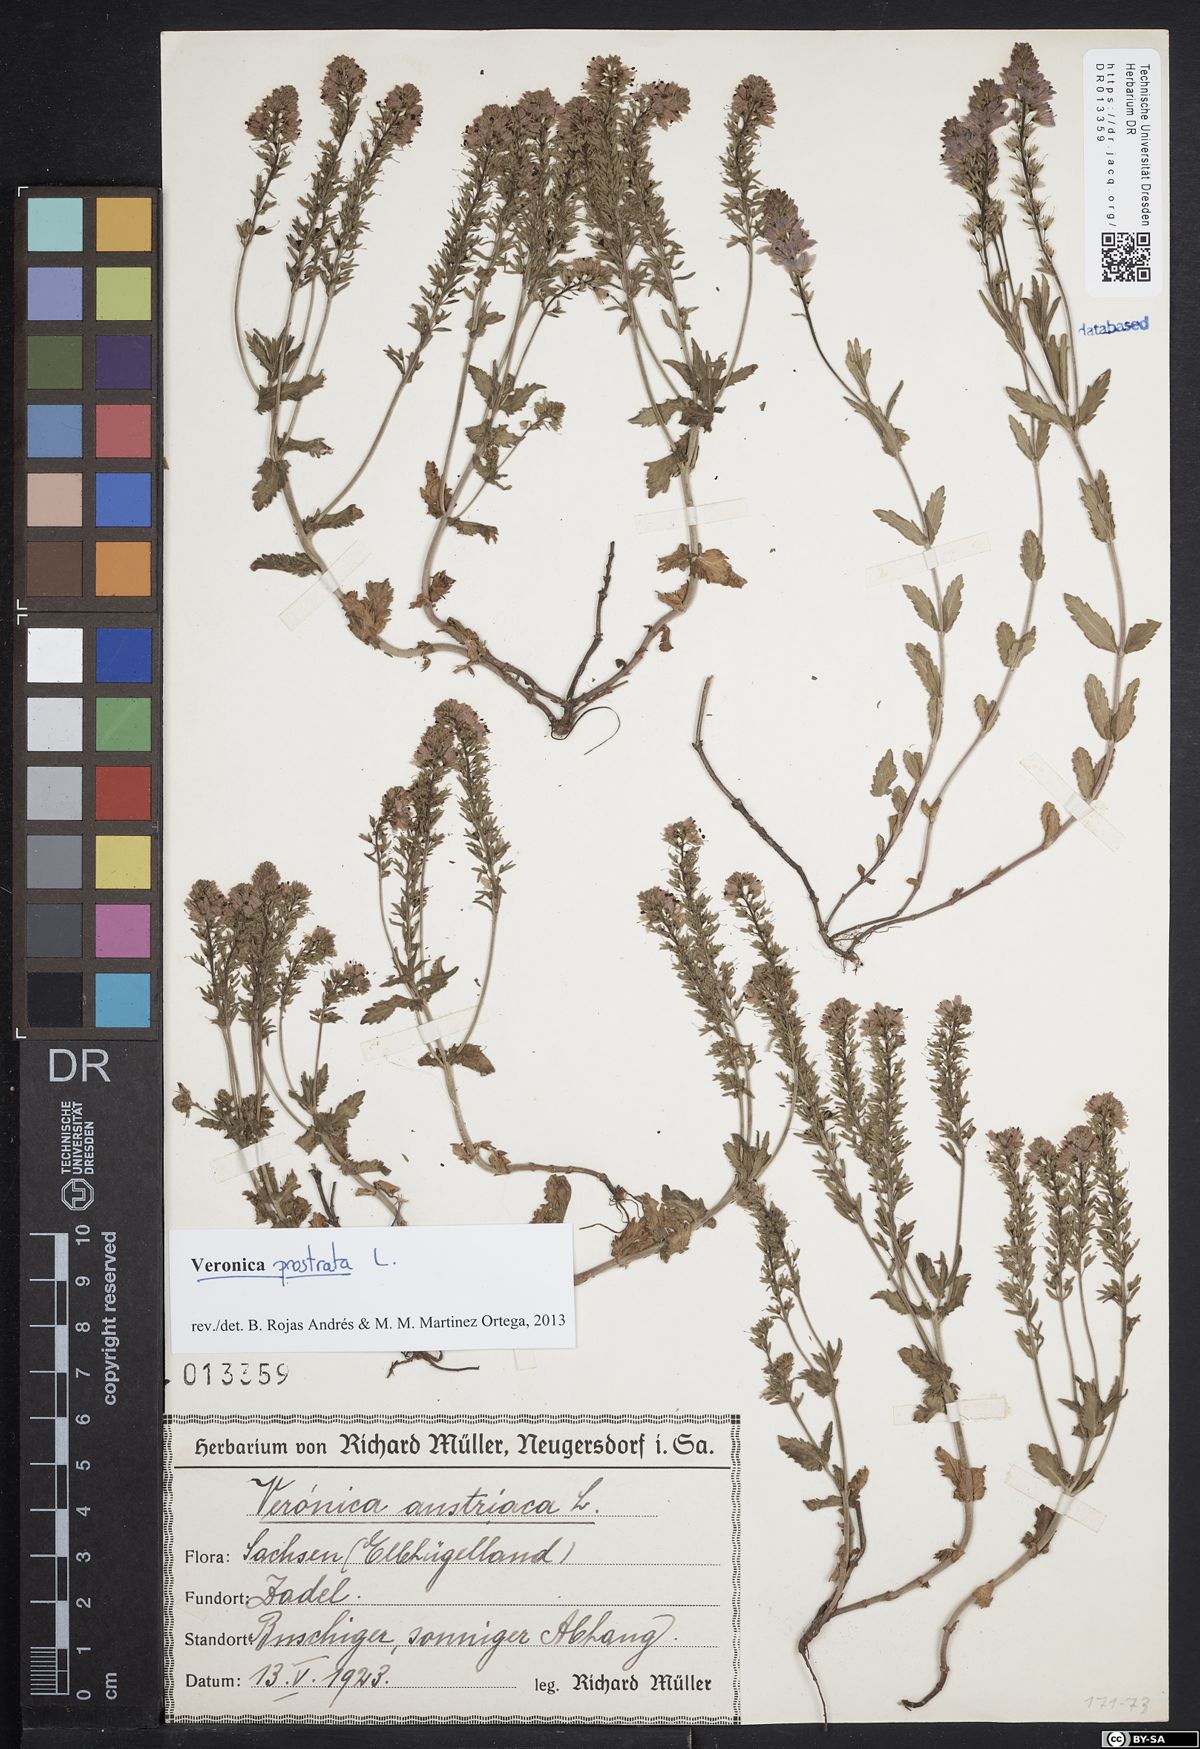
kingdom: Plantae
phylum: Tracheophyta
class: Magnoliopsida
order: Lamiales
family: Plantaginaceae
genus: Veronica
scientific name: Veronica prostrata
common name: Prostrate speedwell
